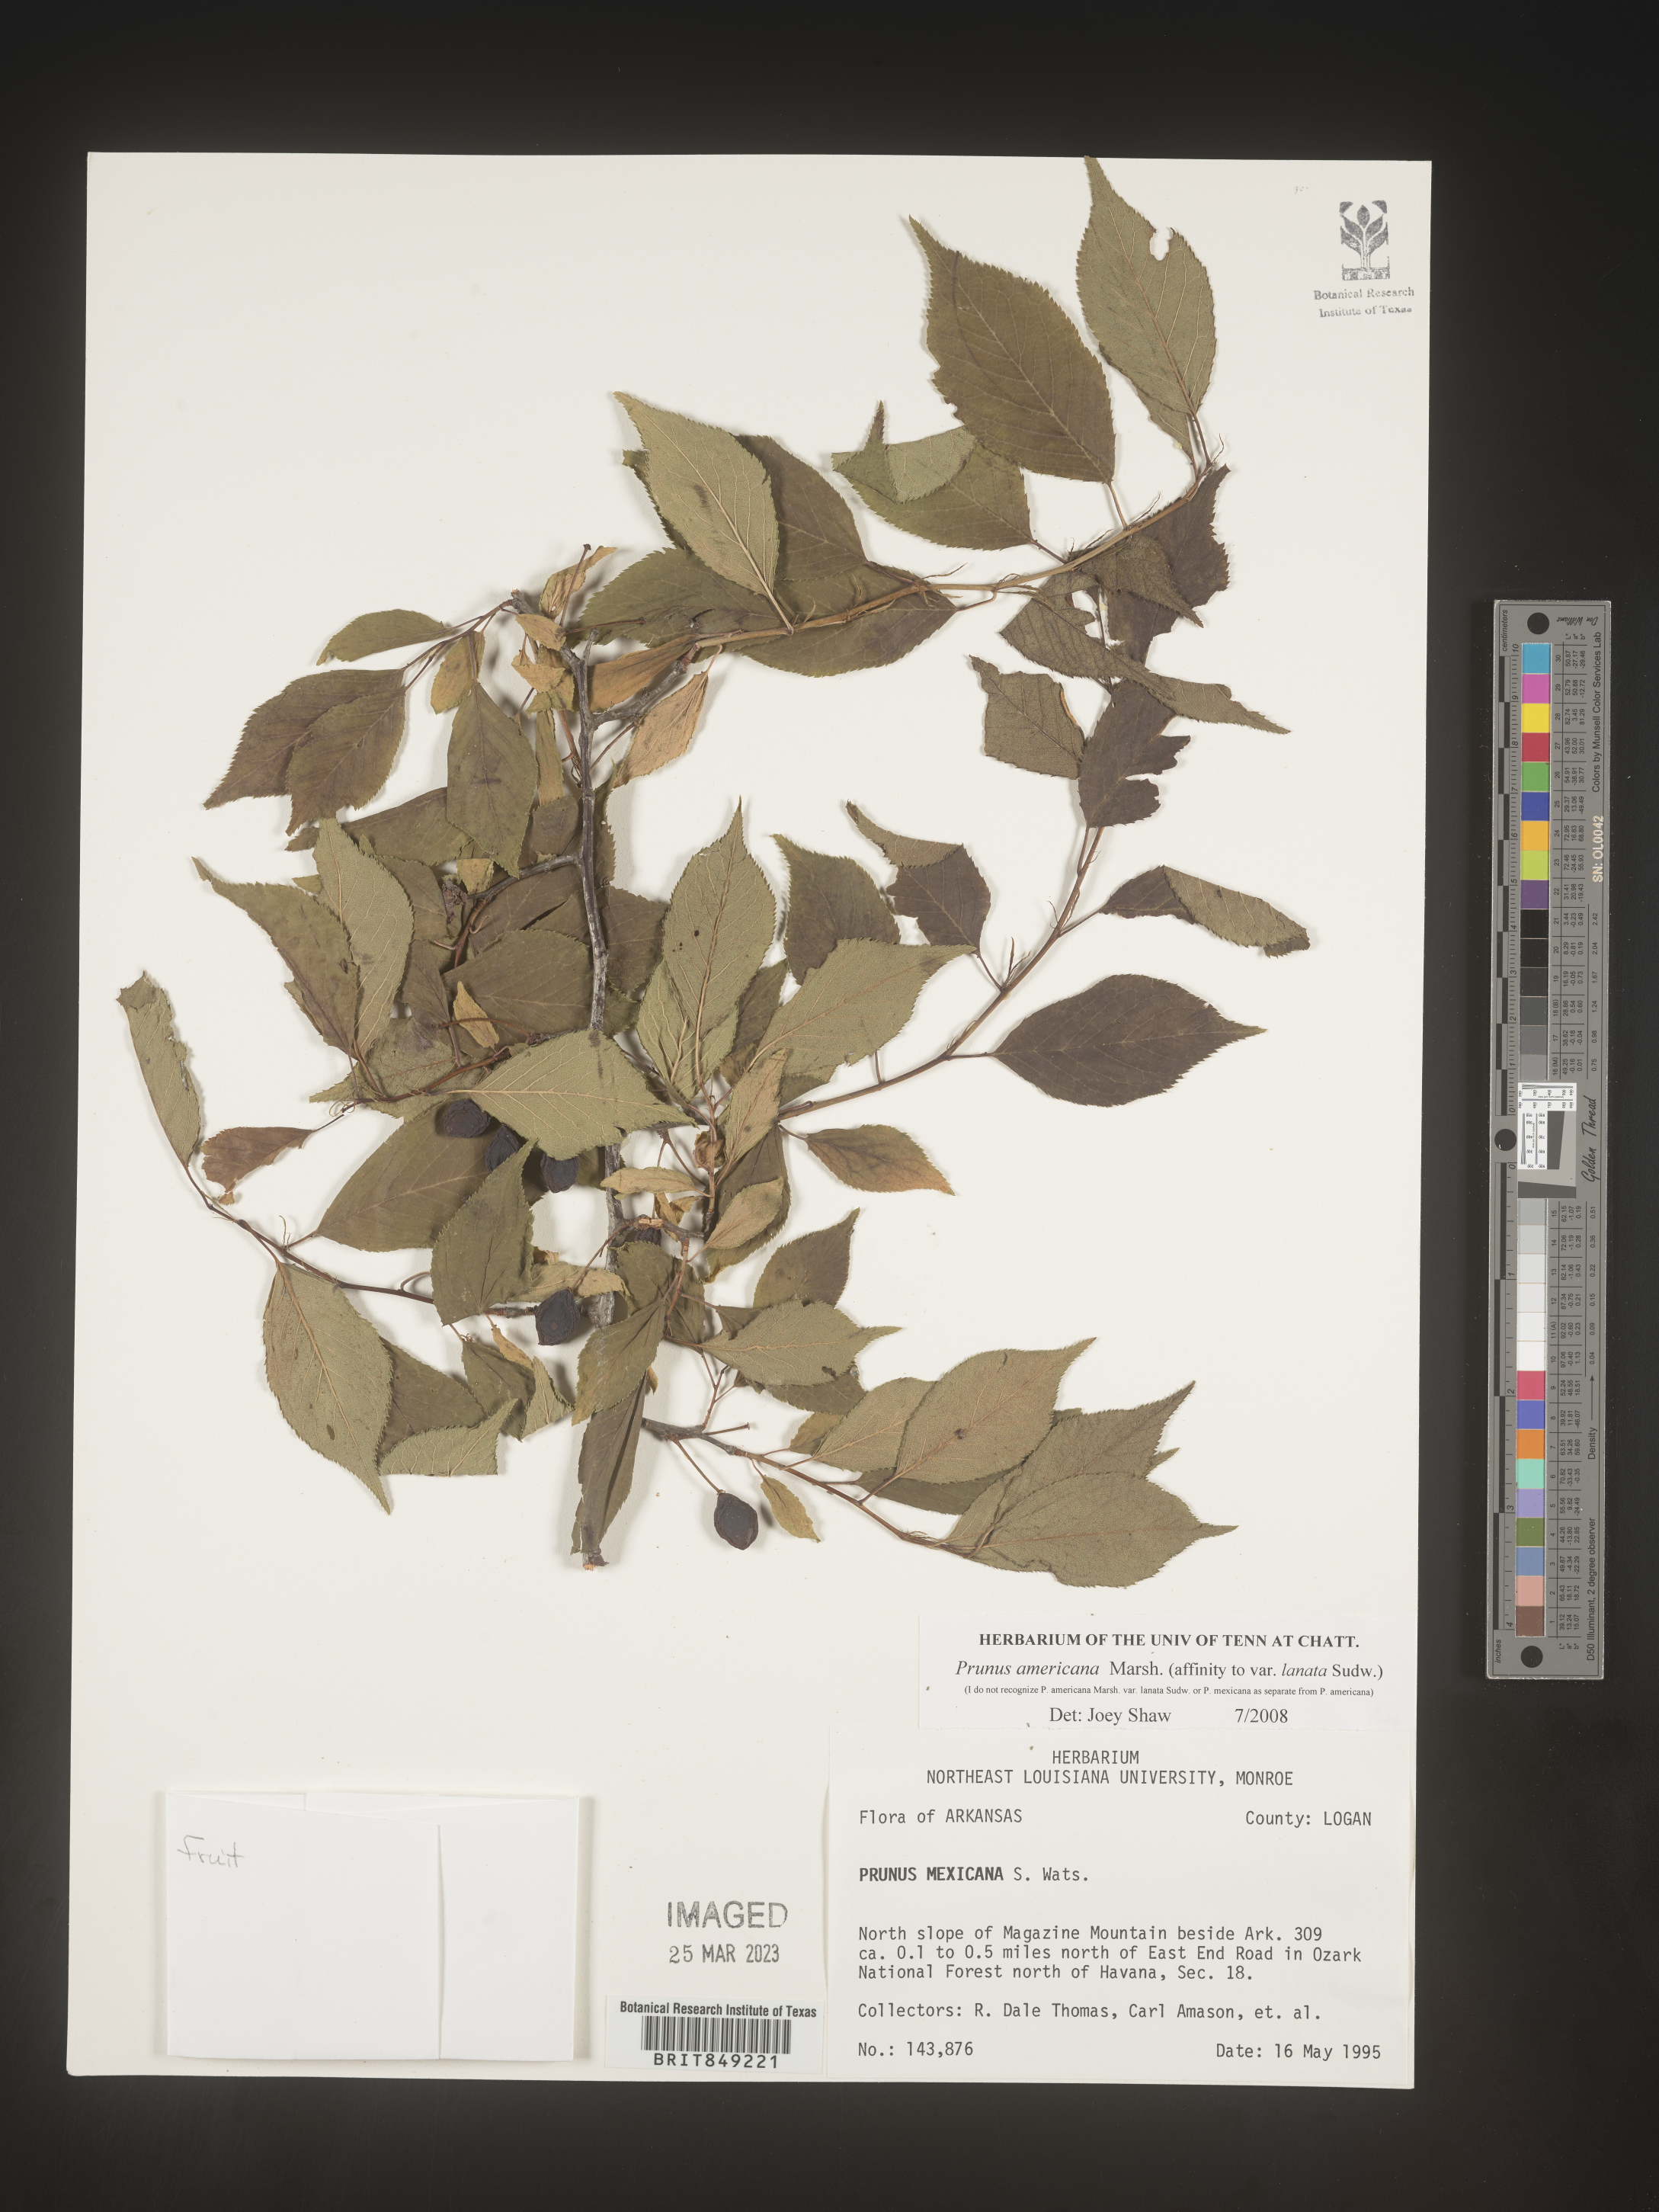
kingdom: Plantae
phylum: Tracheophyta
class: Magnoliopsida
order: Rosales
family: Rosaceae
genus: Prunus
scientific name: Prunus americana
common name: American plum
